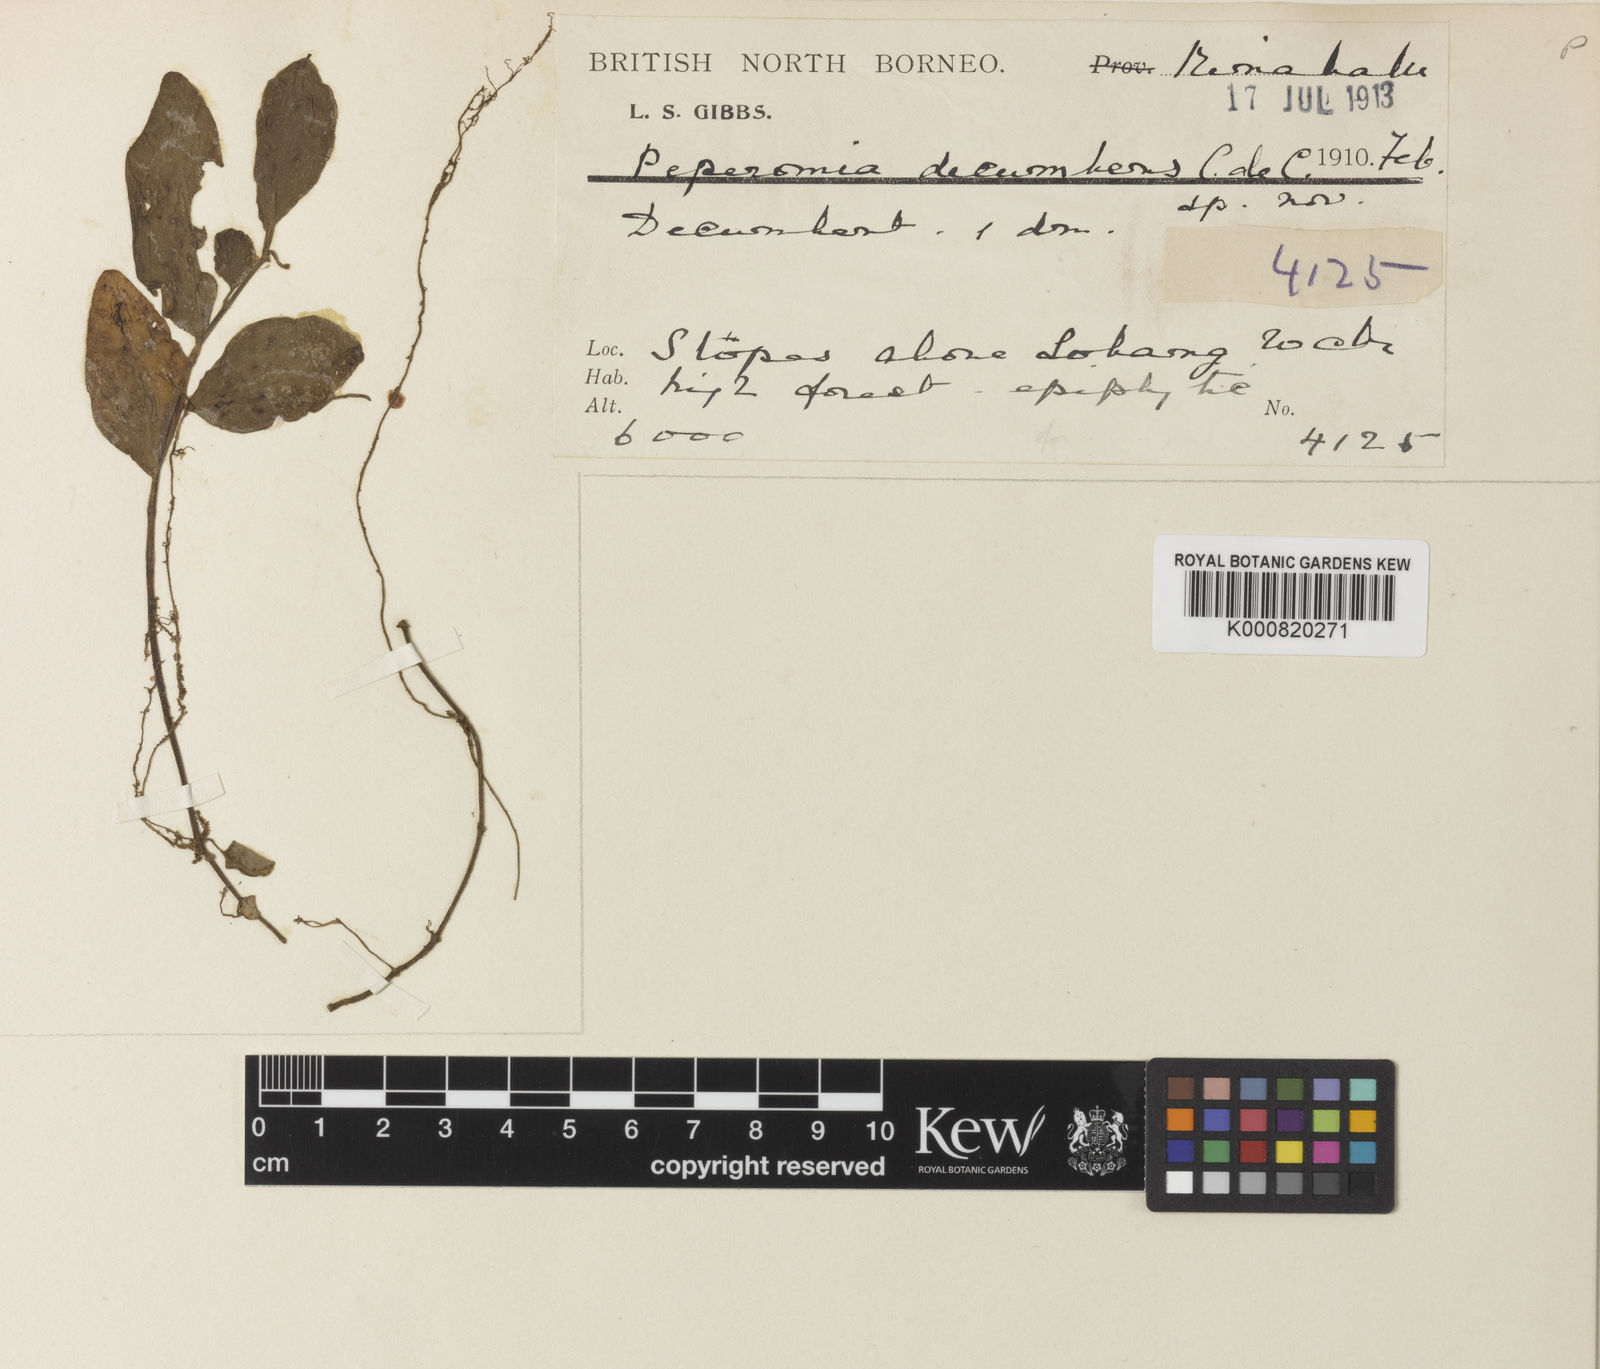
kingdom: Plantae
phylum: Tracheophyta
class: Magnoliopsida
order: Piperales
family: Piperaceae
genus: Peperomia
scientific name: Peperomia decumbens
